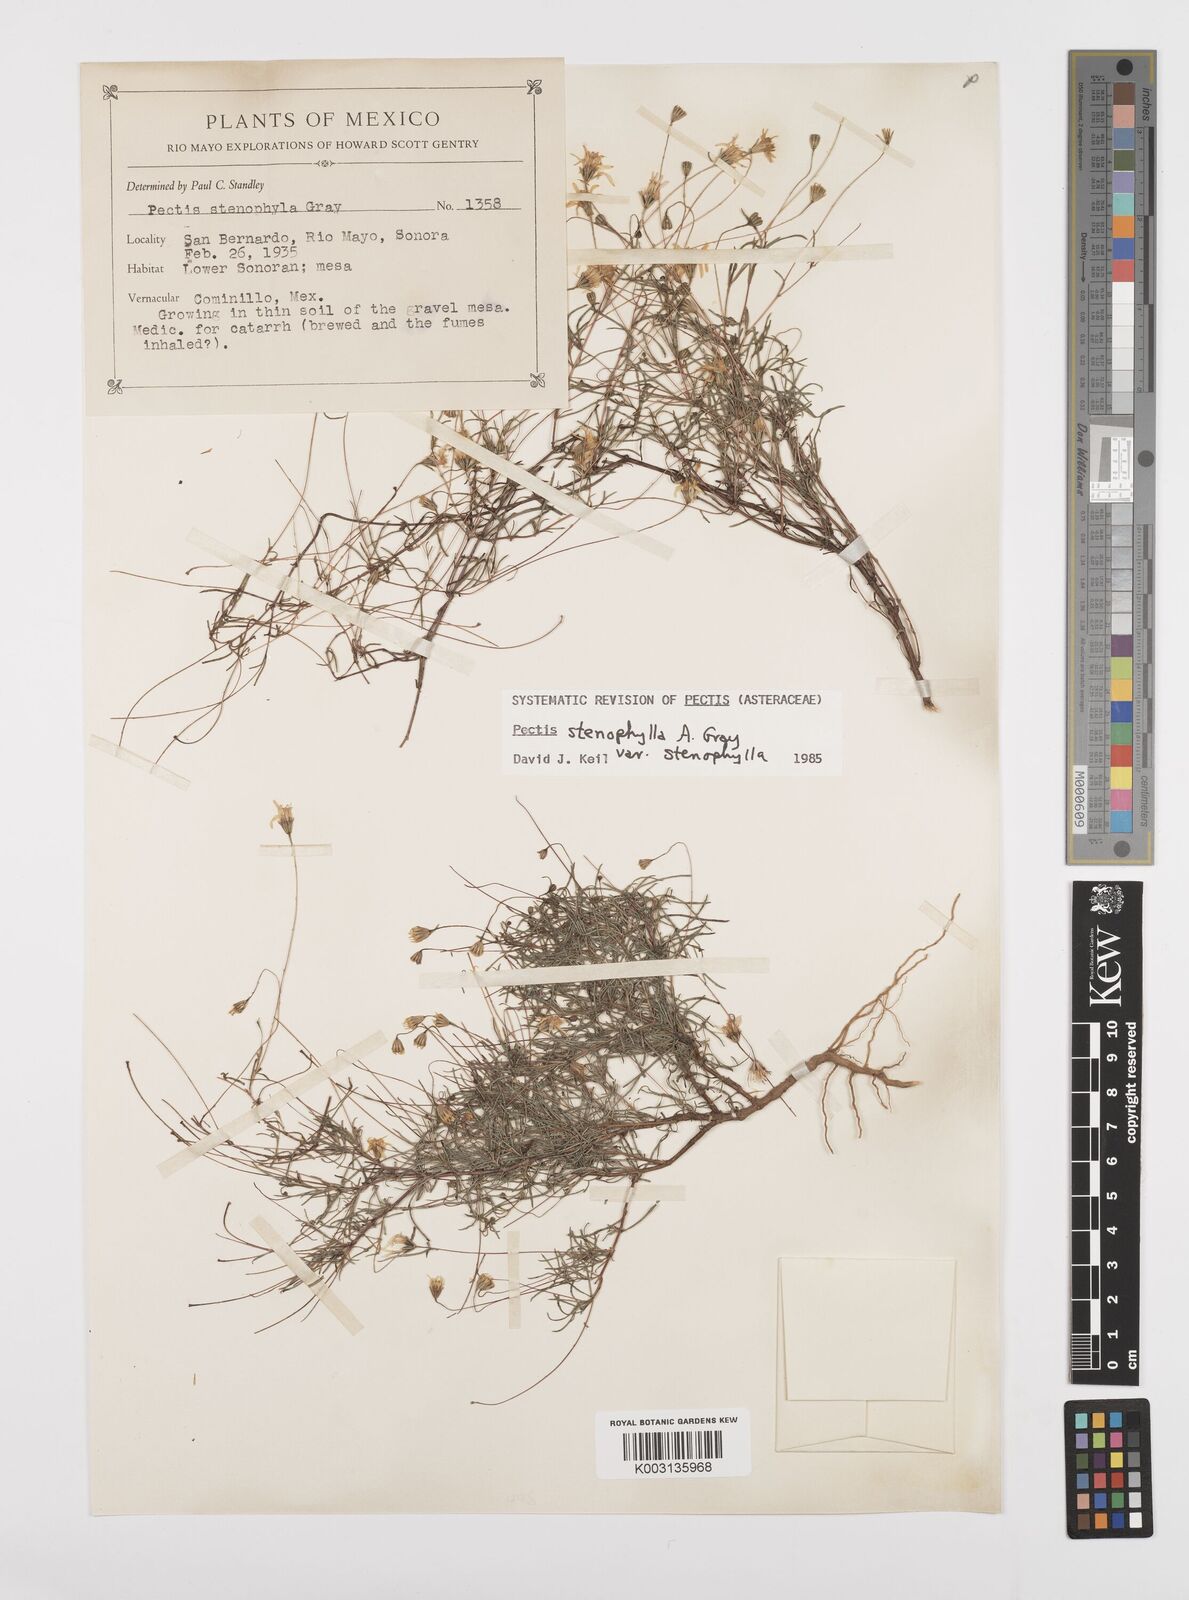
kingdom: Plantae
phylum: Tracheophyta
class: Magnoliopsida
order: Asterales
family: Asteraceae
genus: Pectis
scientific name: Pectis stenophylla
